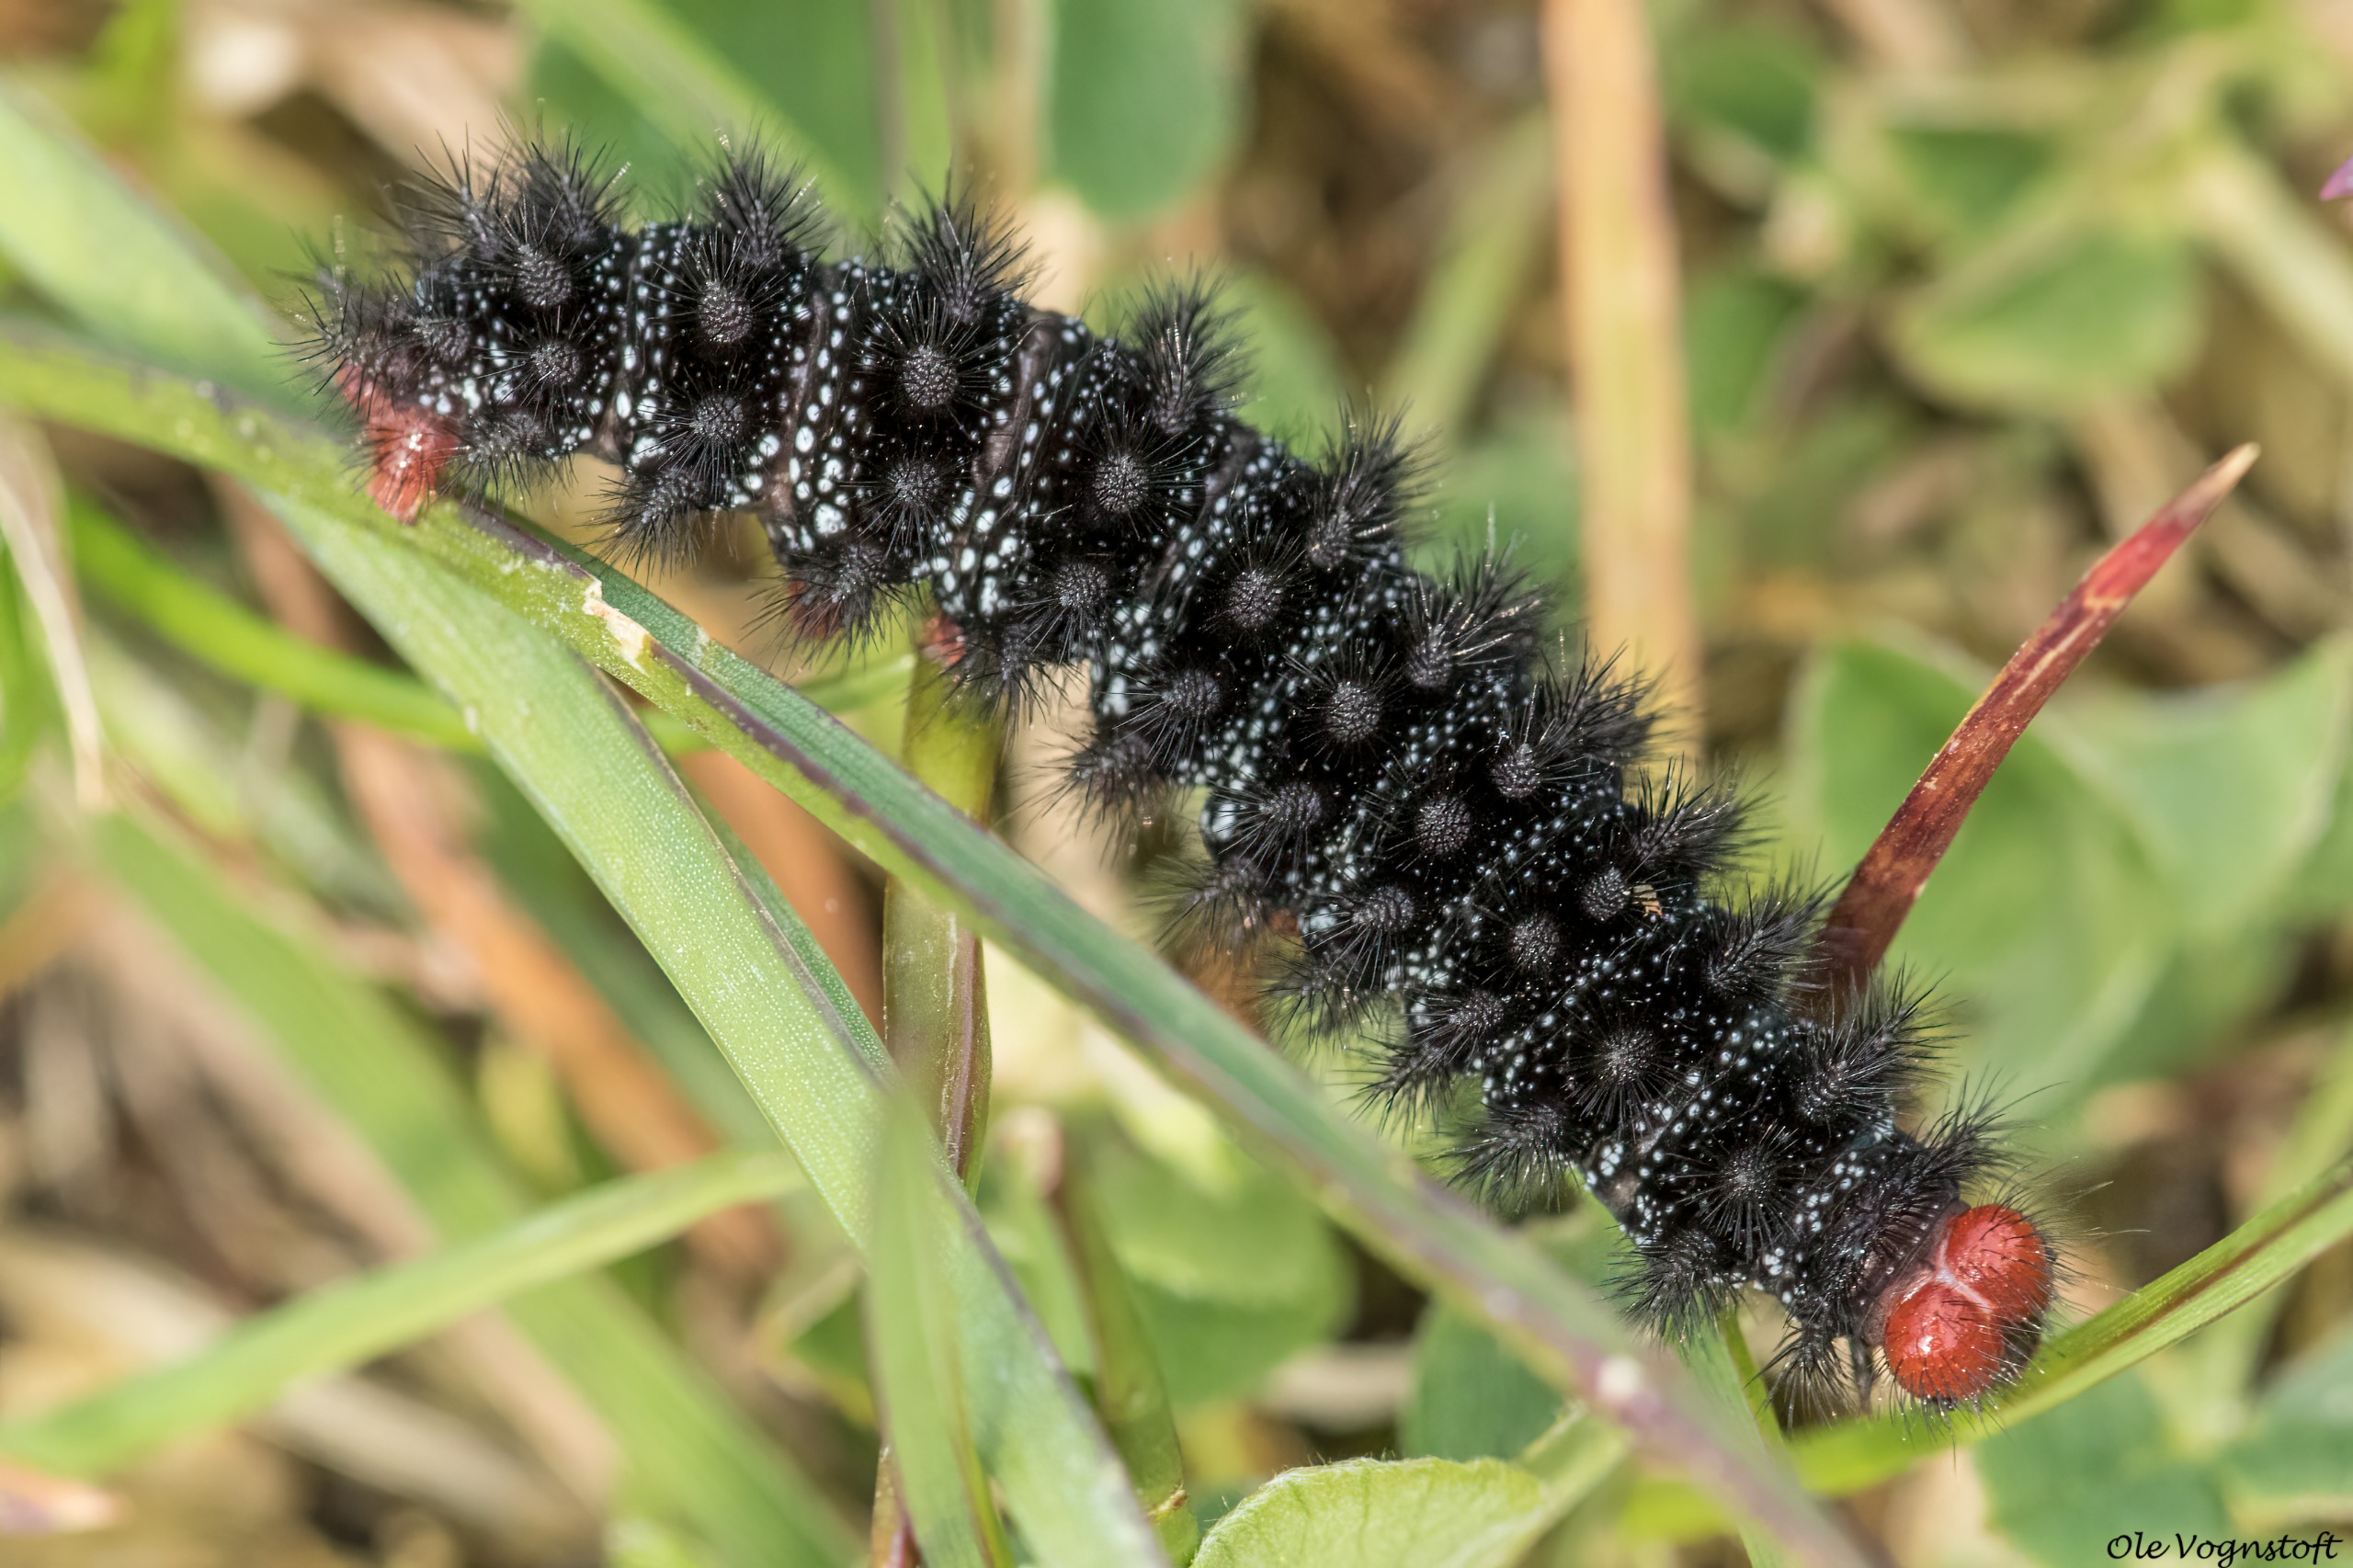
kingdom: Animalia
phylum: Arthropoda
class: Insecta
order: Lepidoptera
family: Nymphalidae
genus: Melitaea
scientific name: Melitaea cinxia
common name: Okkergul pletvinge
